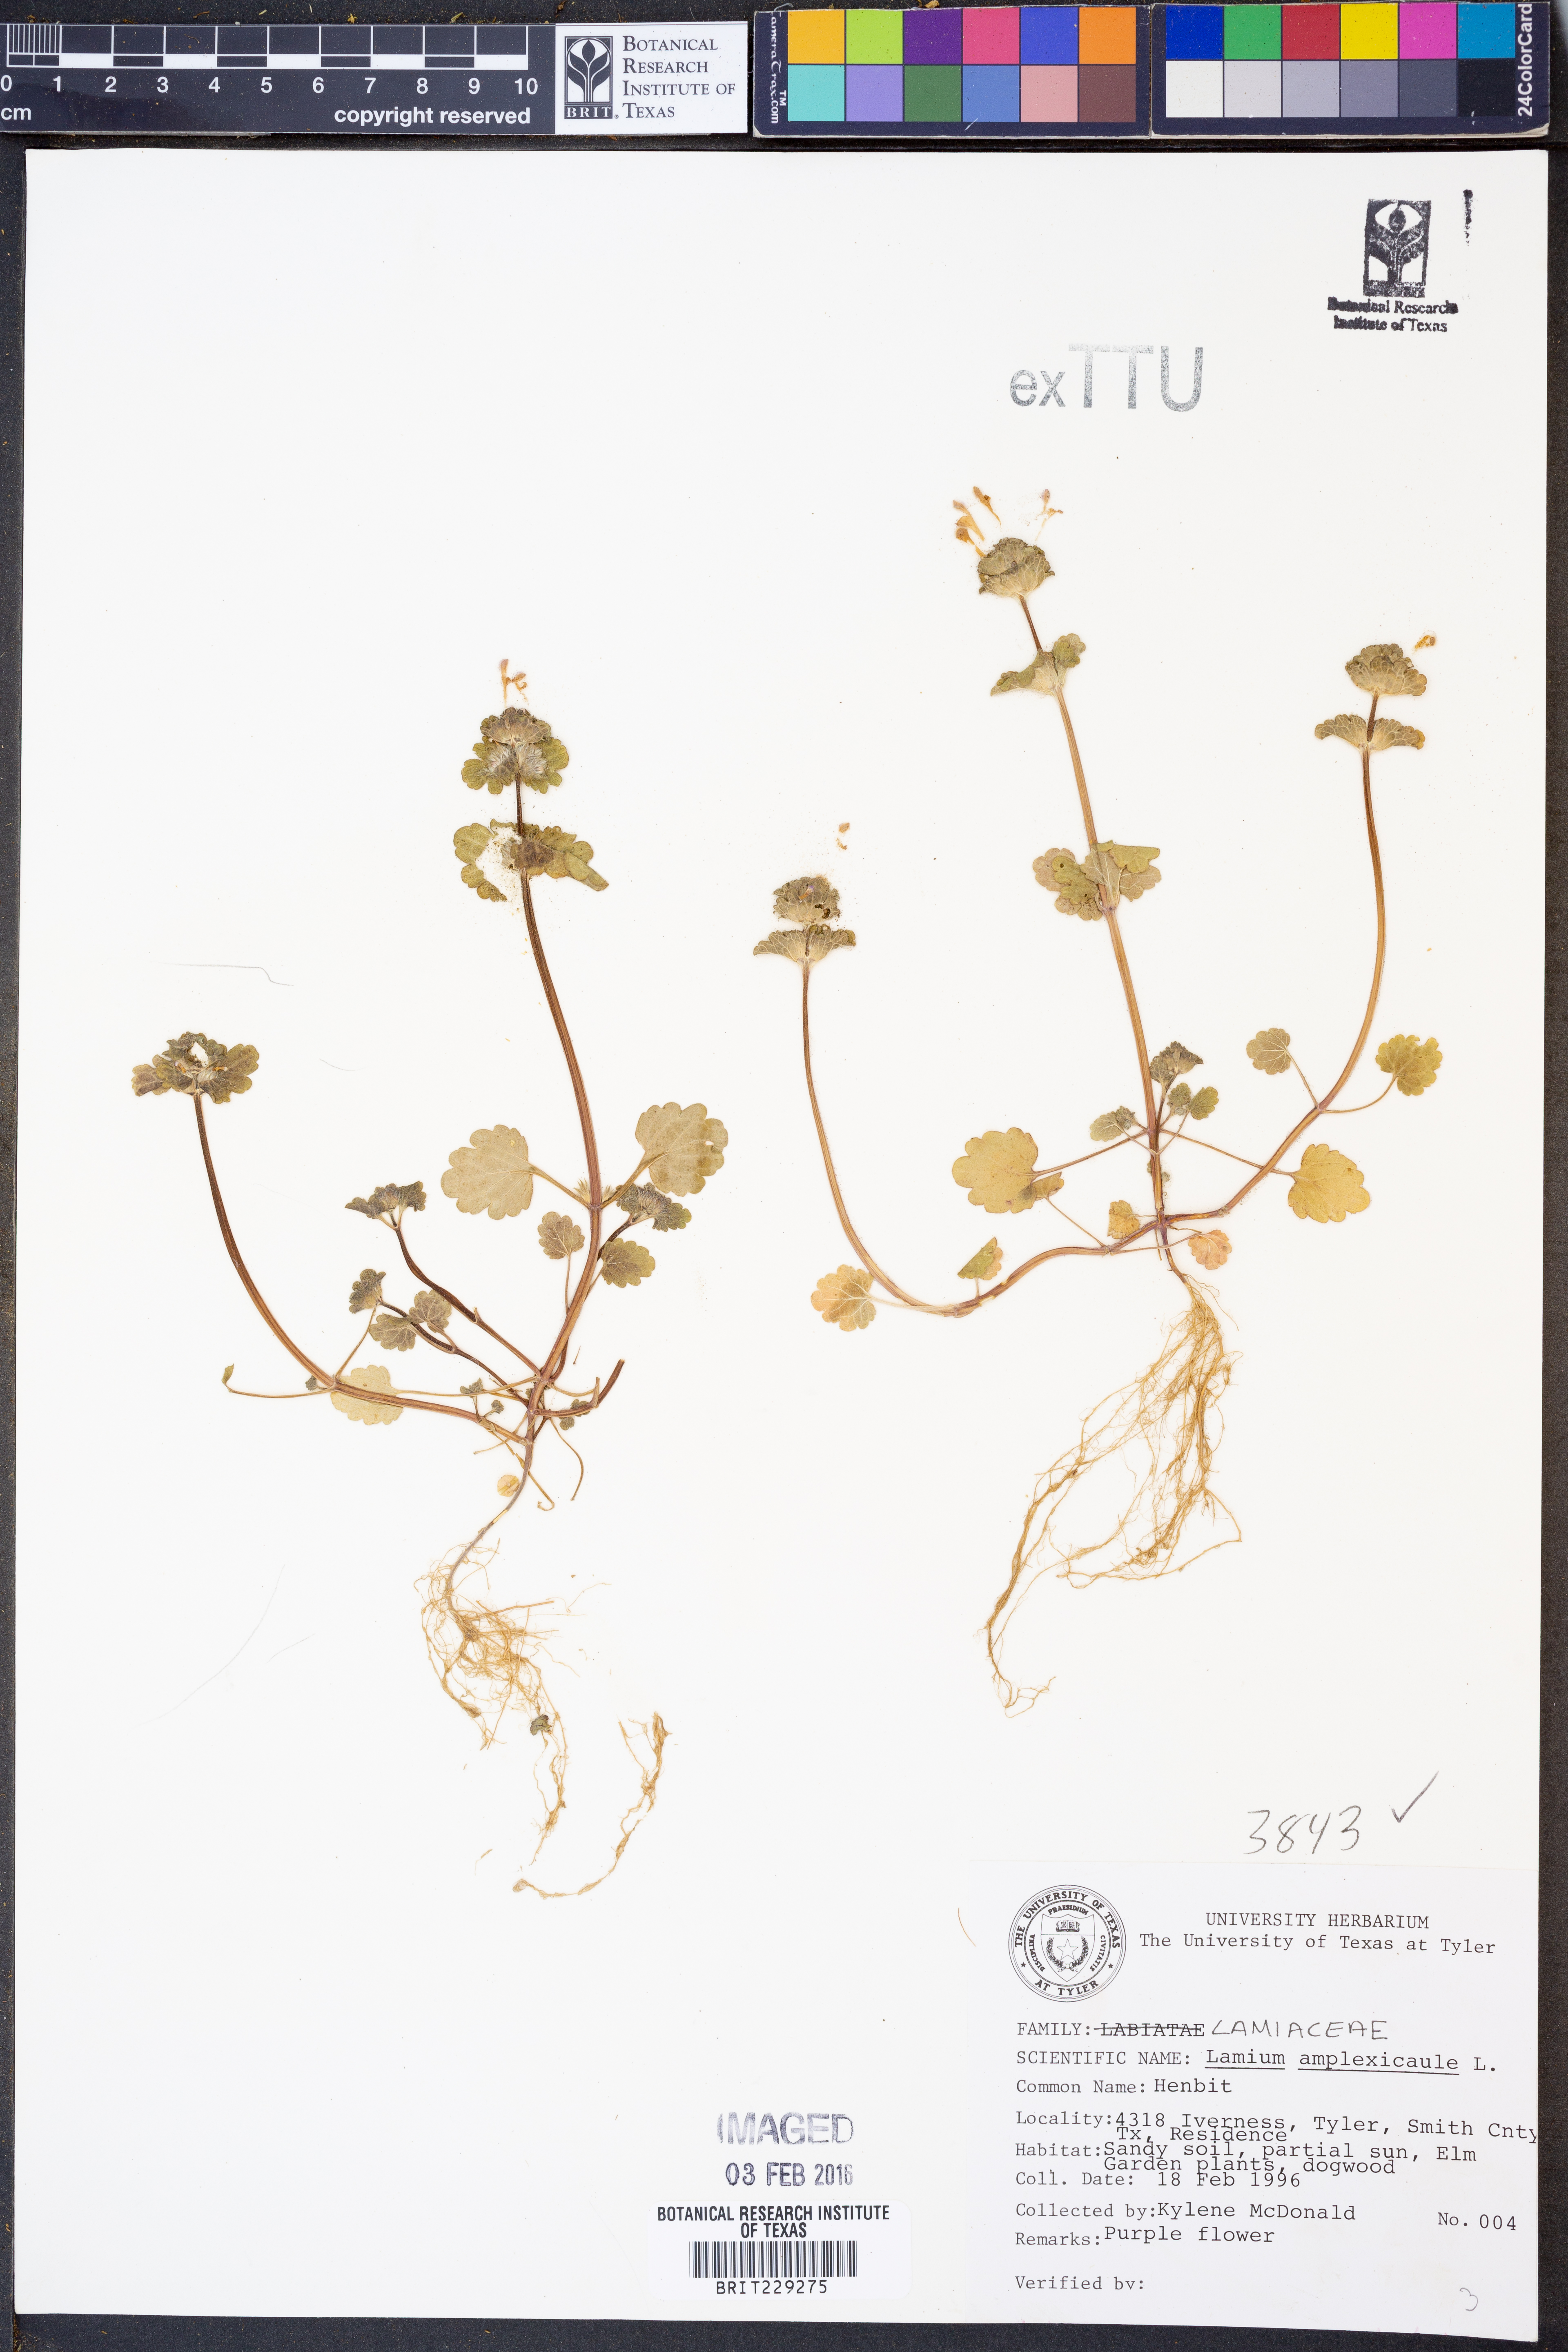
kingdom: Plantae
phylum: Tracheophyta
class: Magnoliopsida
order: Lamiales
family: Lamiaceae
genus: Lamium
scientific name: Lamium amplexicaule
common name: Henbit dead-nettle
